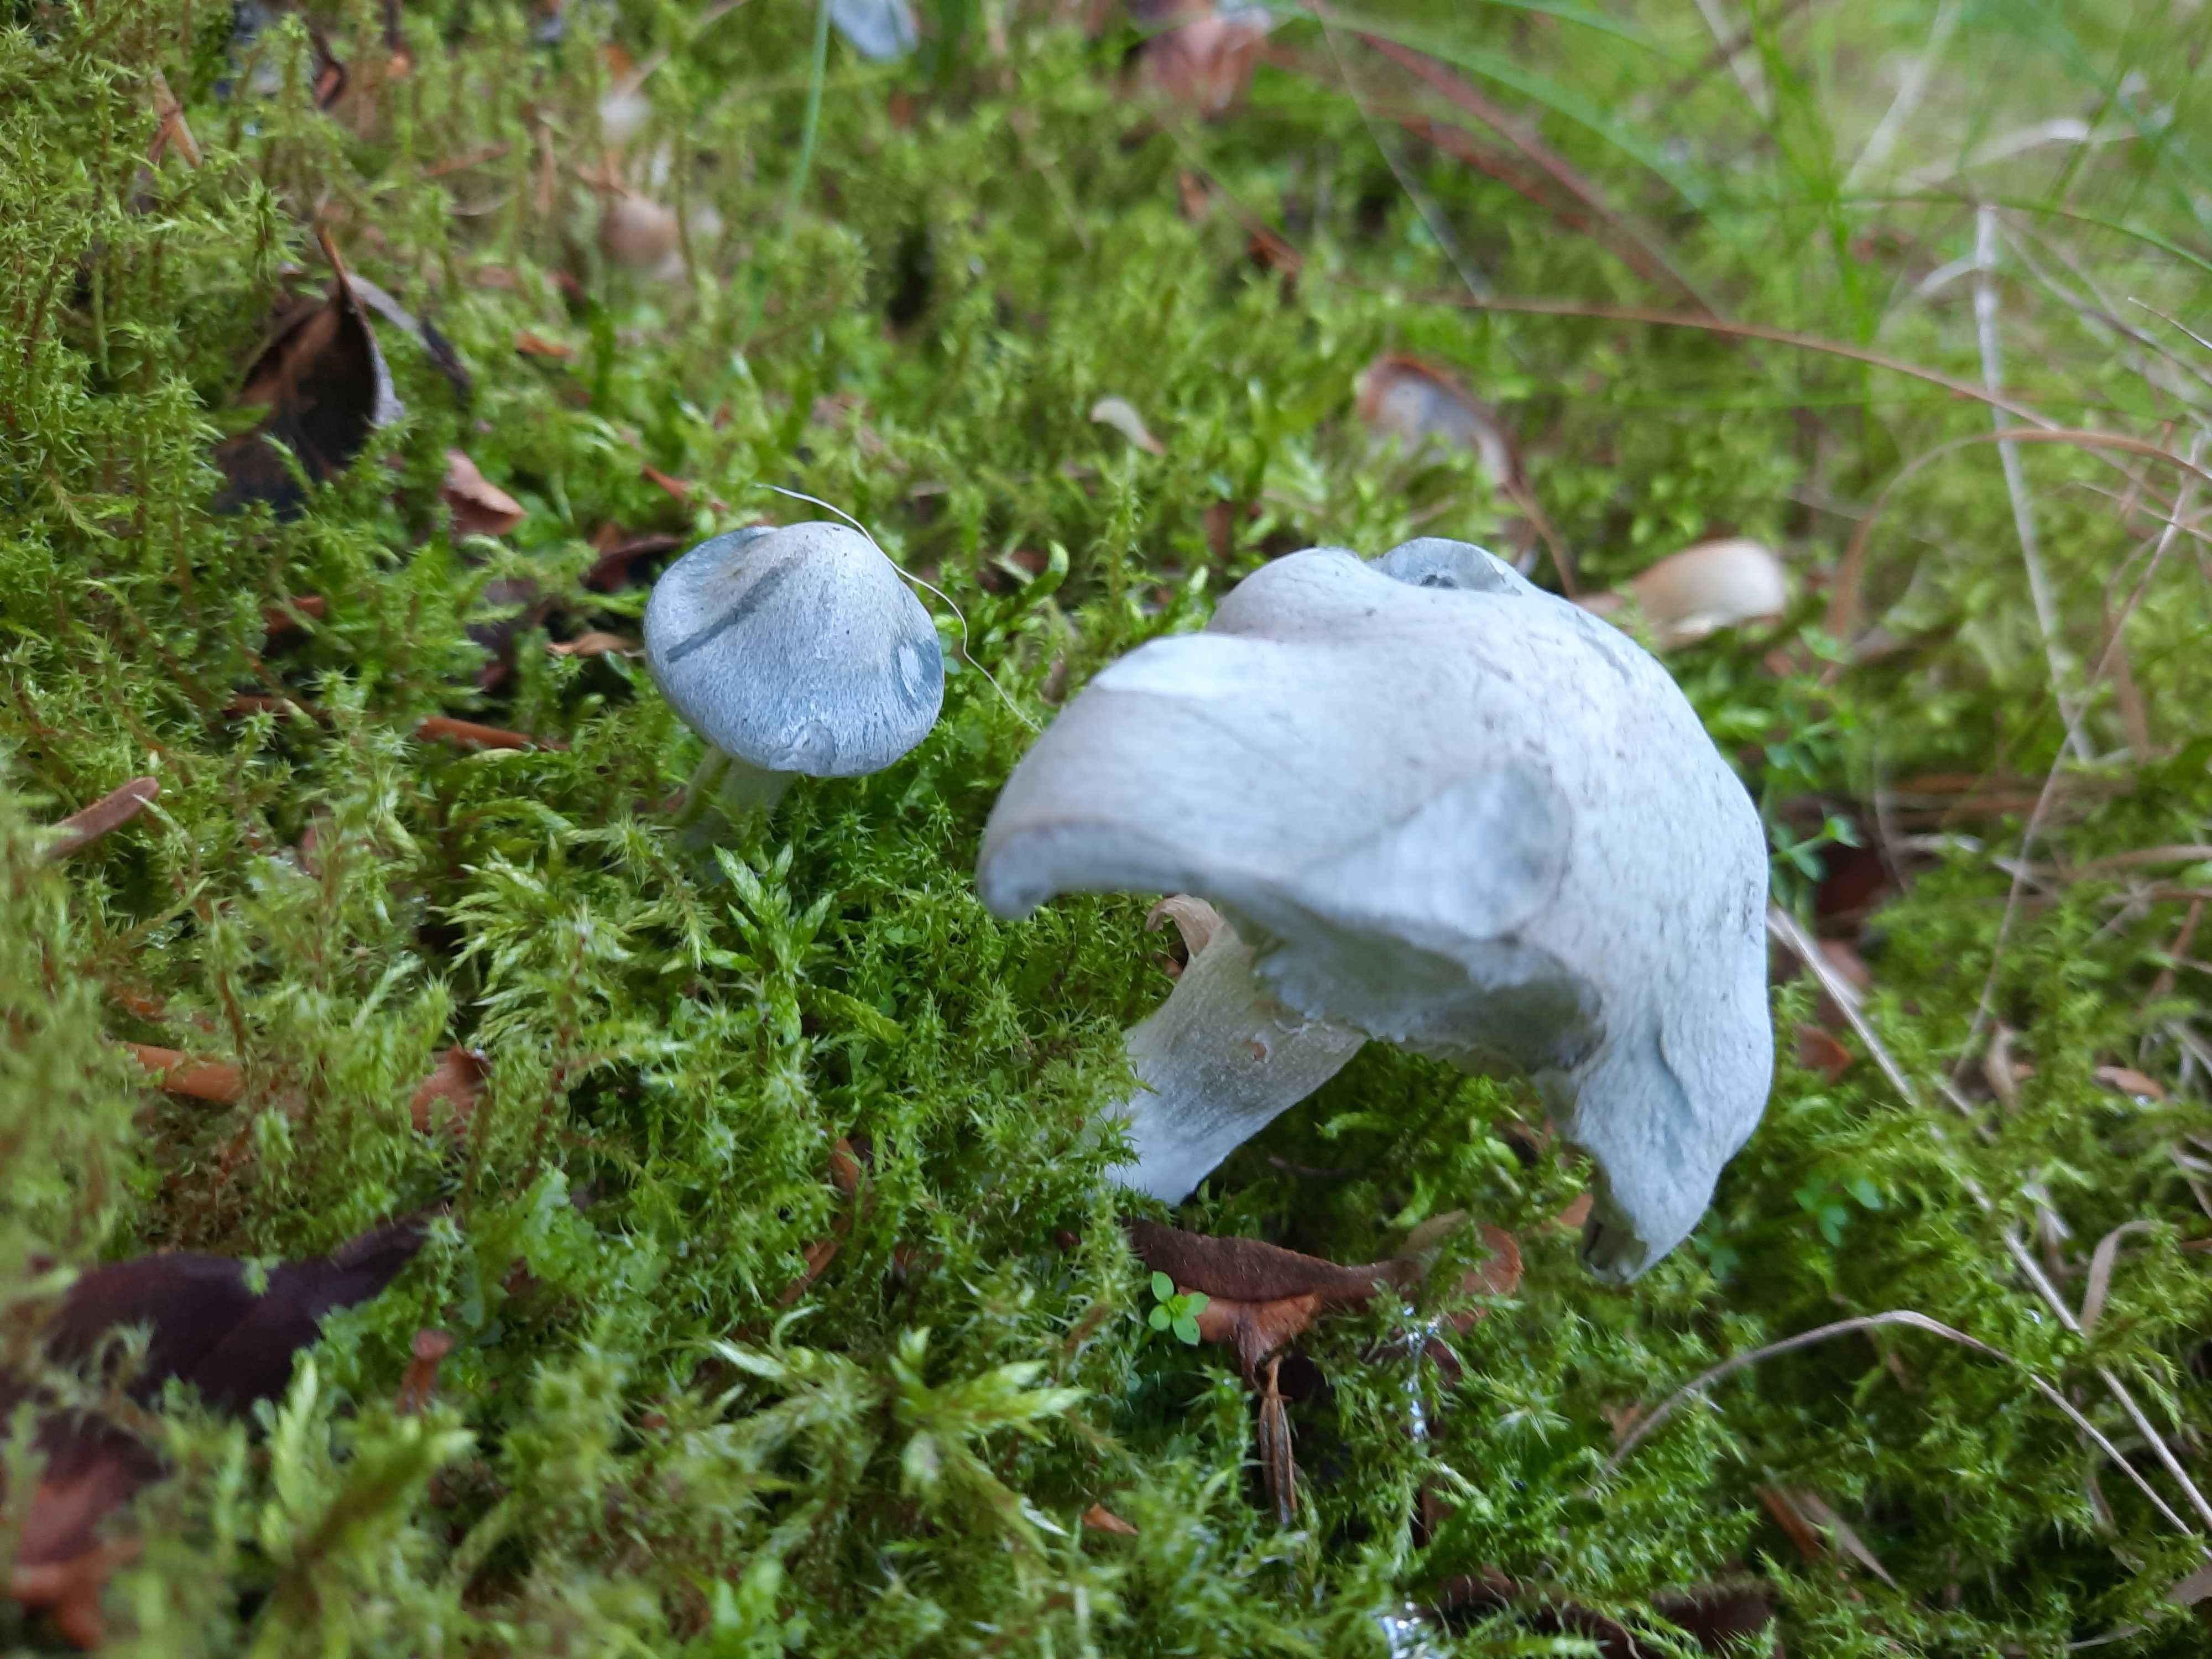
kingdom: Fungi
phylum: Basidiomycota
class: Agaricomycetes
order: Agaricales
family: Tricholomataceae
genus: Clitocybe
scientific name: Clitocybe odora
